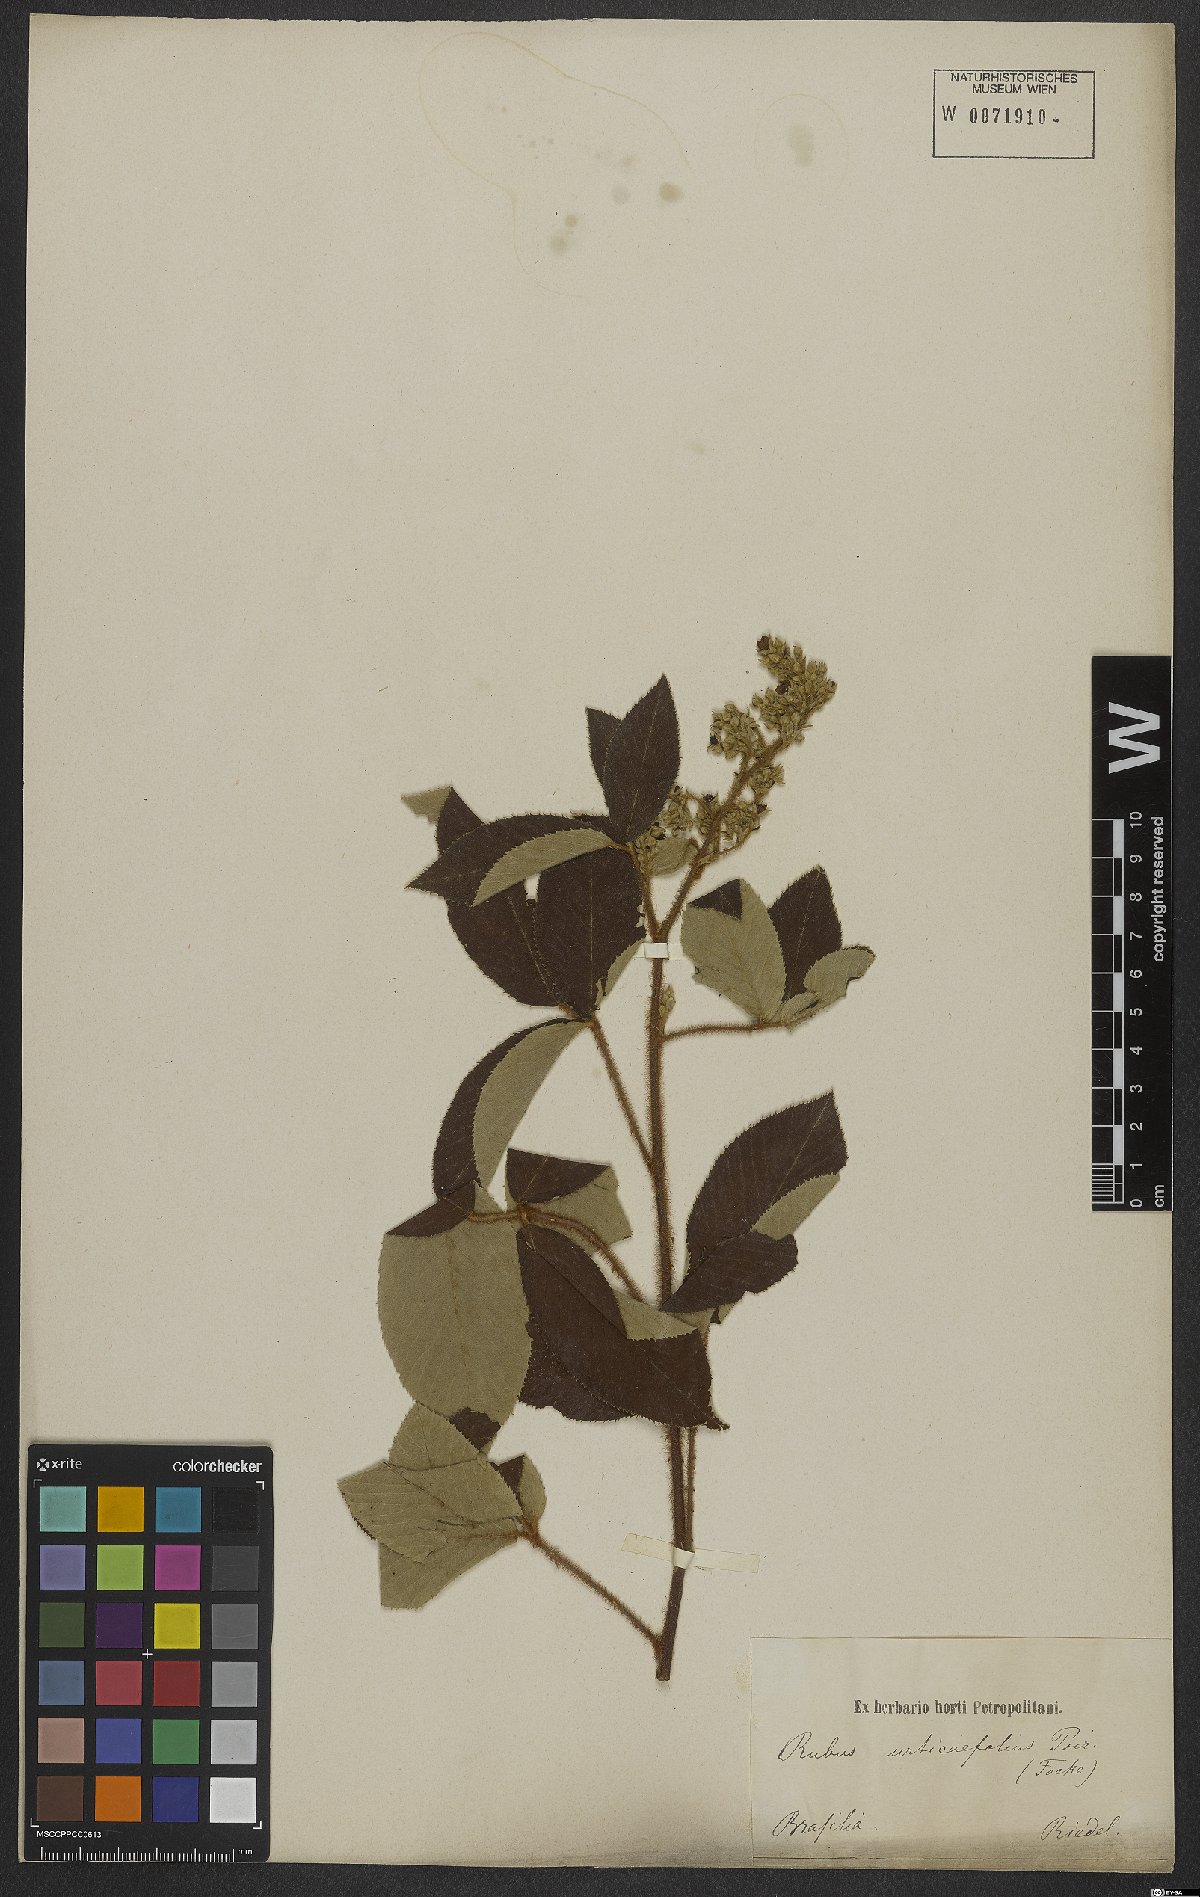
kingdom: Plantae
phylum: Tracheophyta
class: Magnoliopsida
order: Rosales
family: Rosaceae
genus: Rubus
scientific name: Rubus urticifolius
